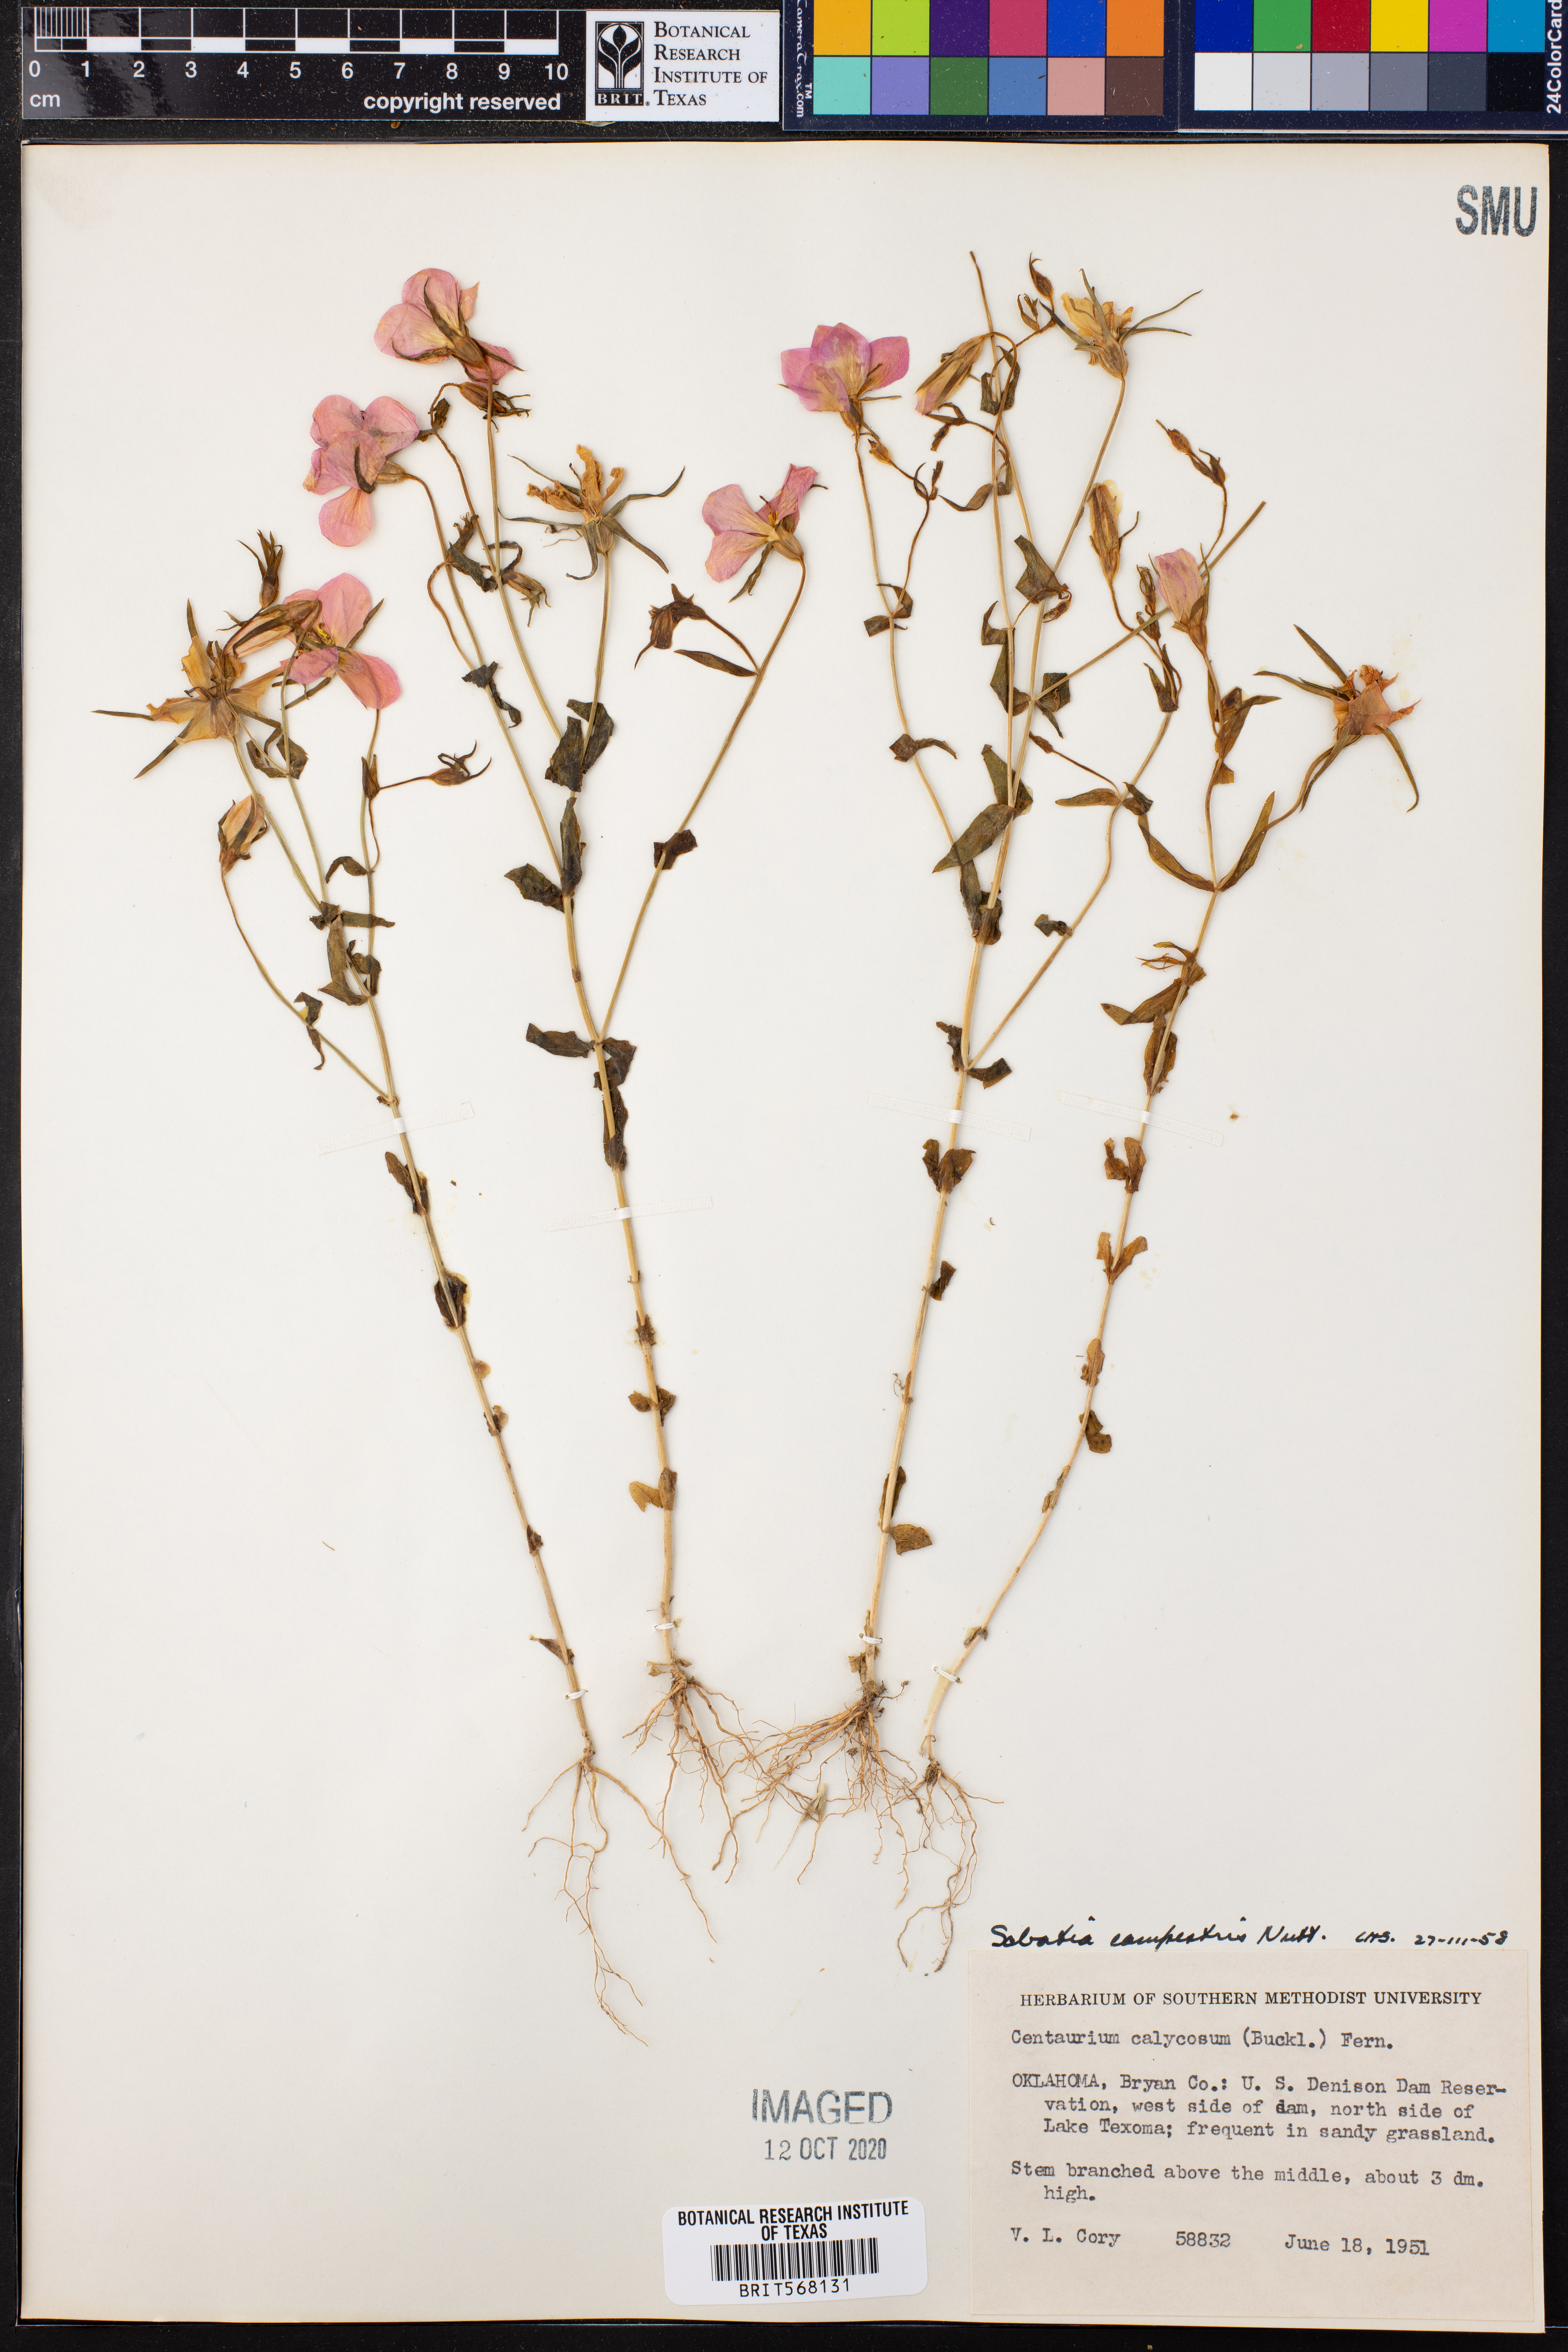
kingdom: Plantae
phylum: Tracheophyta
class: Magnoliopsida
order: Gentianales
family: Gentianaceae
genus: Sabatia
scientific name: Sabatia campestris
